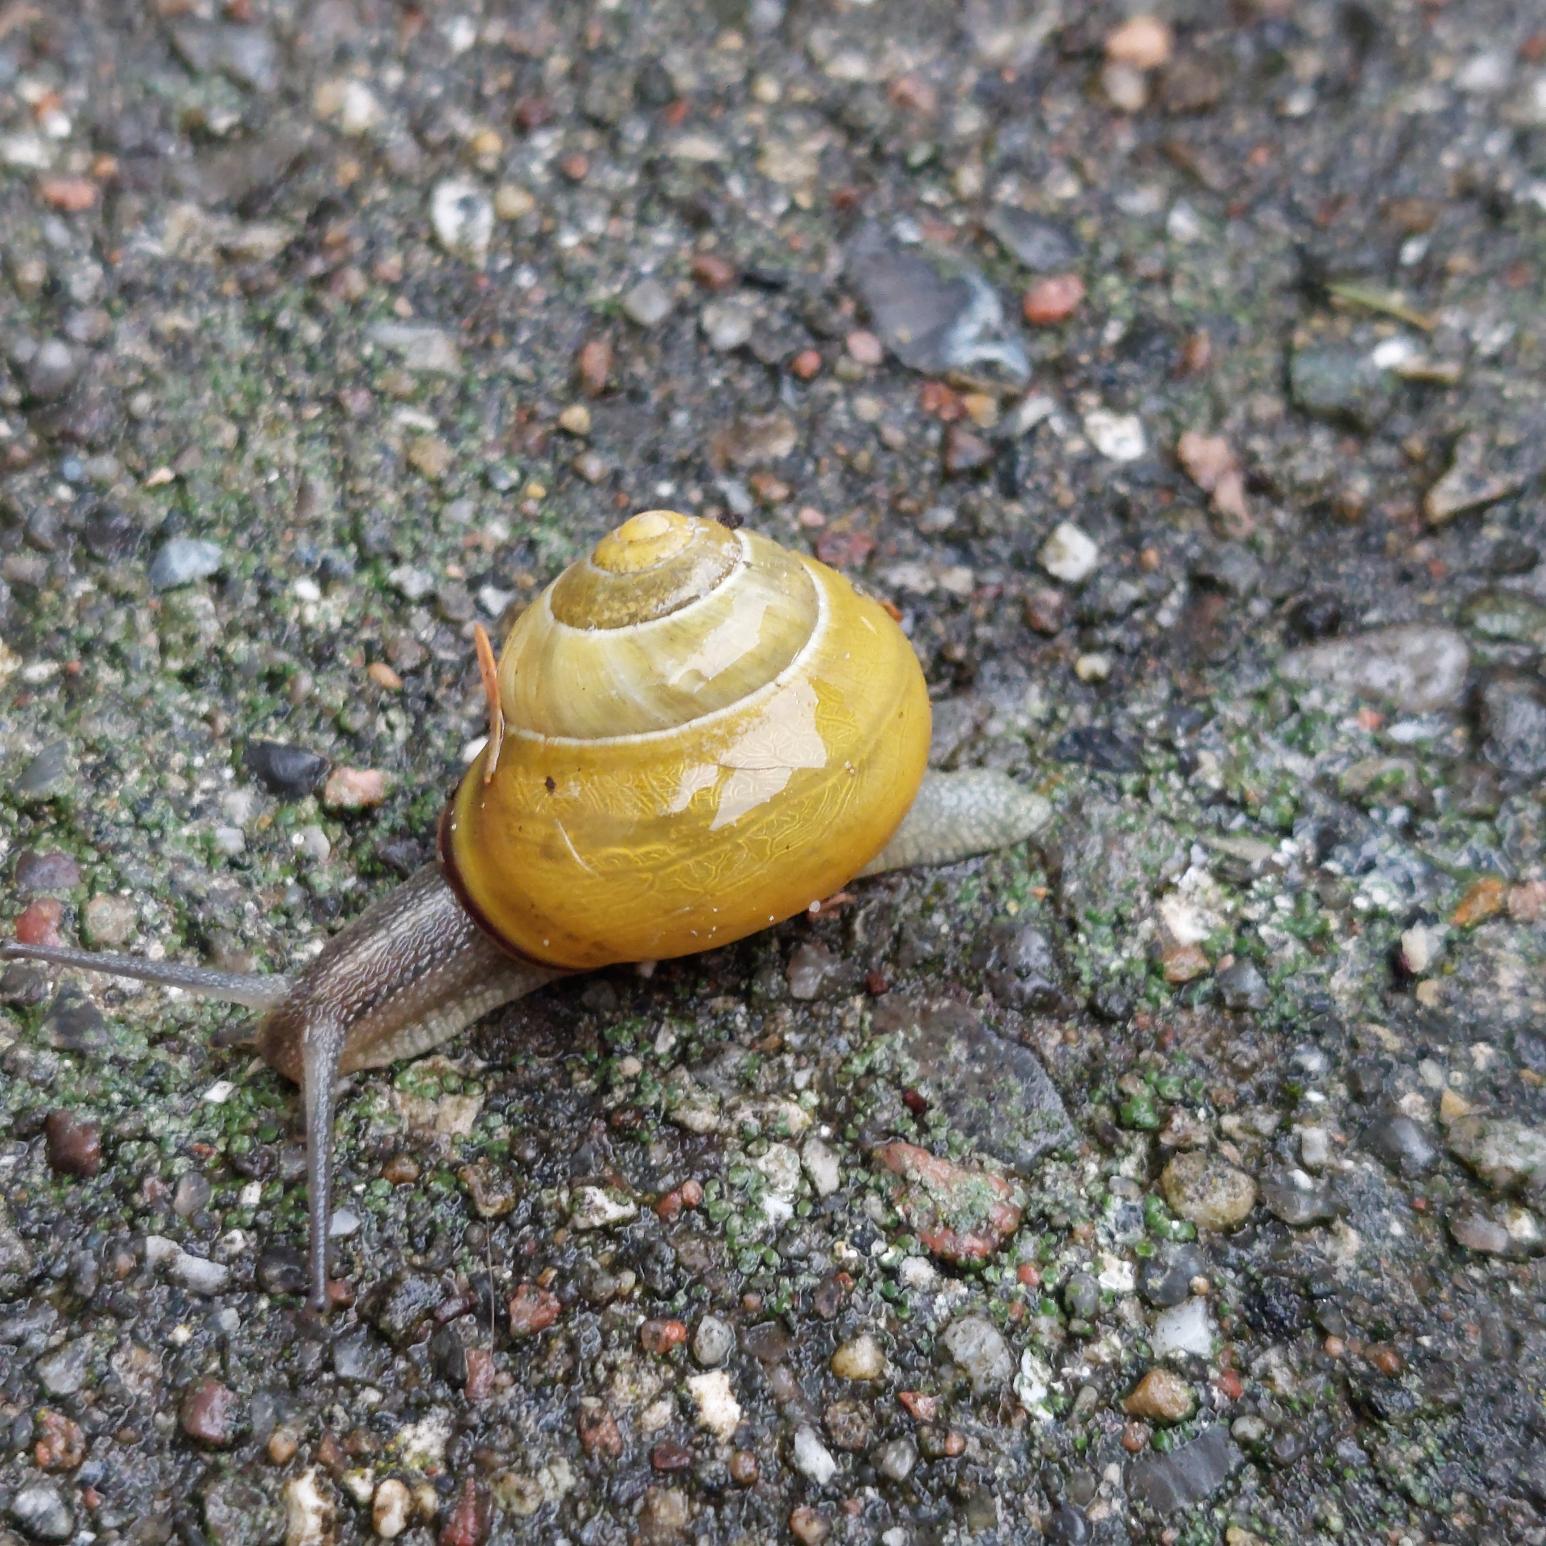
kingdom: Animalia
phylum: Mollusca
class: Gastropoda
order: Stylommatophora
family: Helicidae
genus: Cepaea
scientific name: Cepaea nemoralis
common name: Lundsnegl
